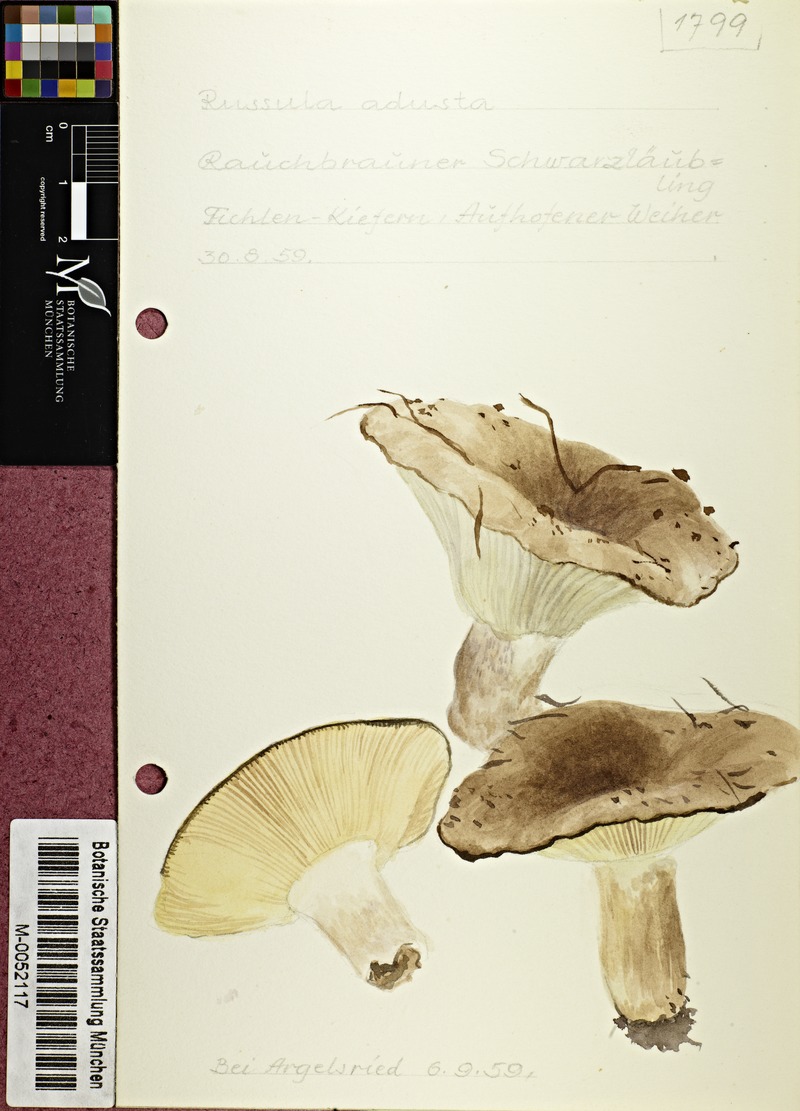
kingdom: Fungi
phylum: Basidiomycota
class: Agaricomycetes
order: Russulales
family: Russulaceae
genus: Russula
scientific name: Russula adusta
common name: Winecork brittlegill
